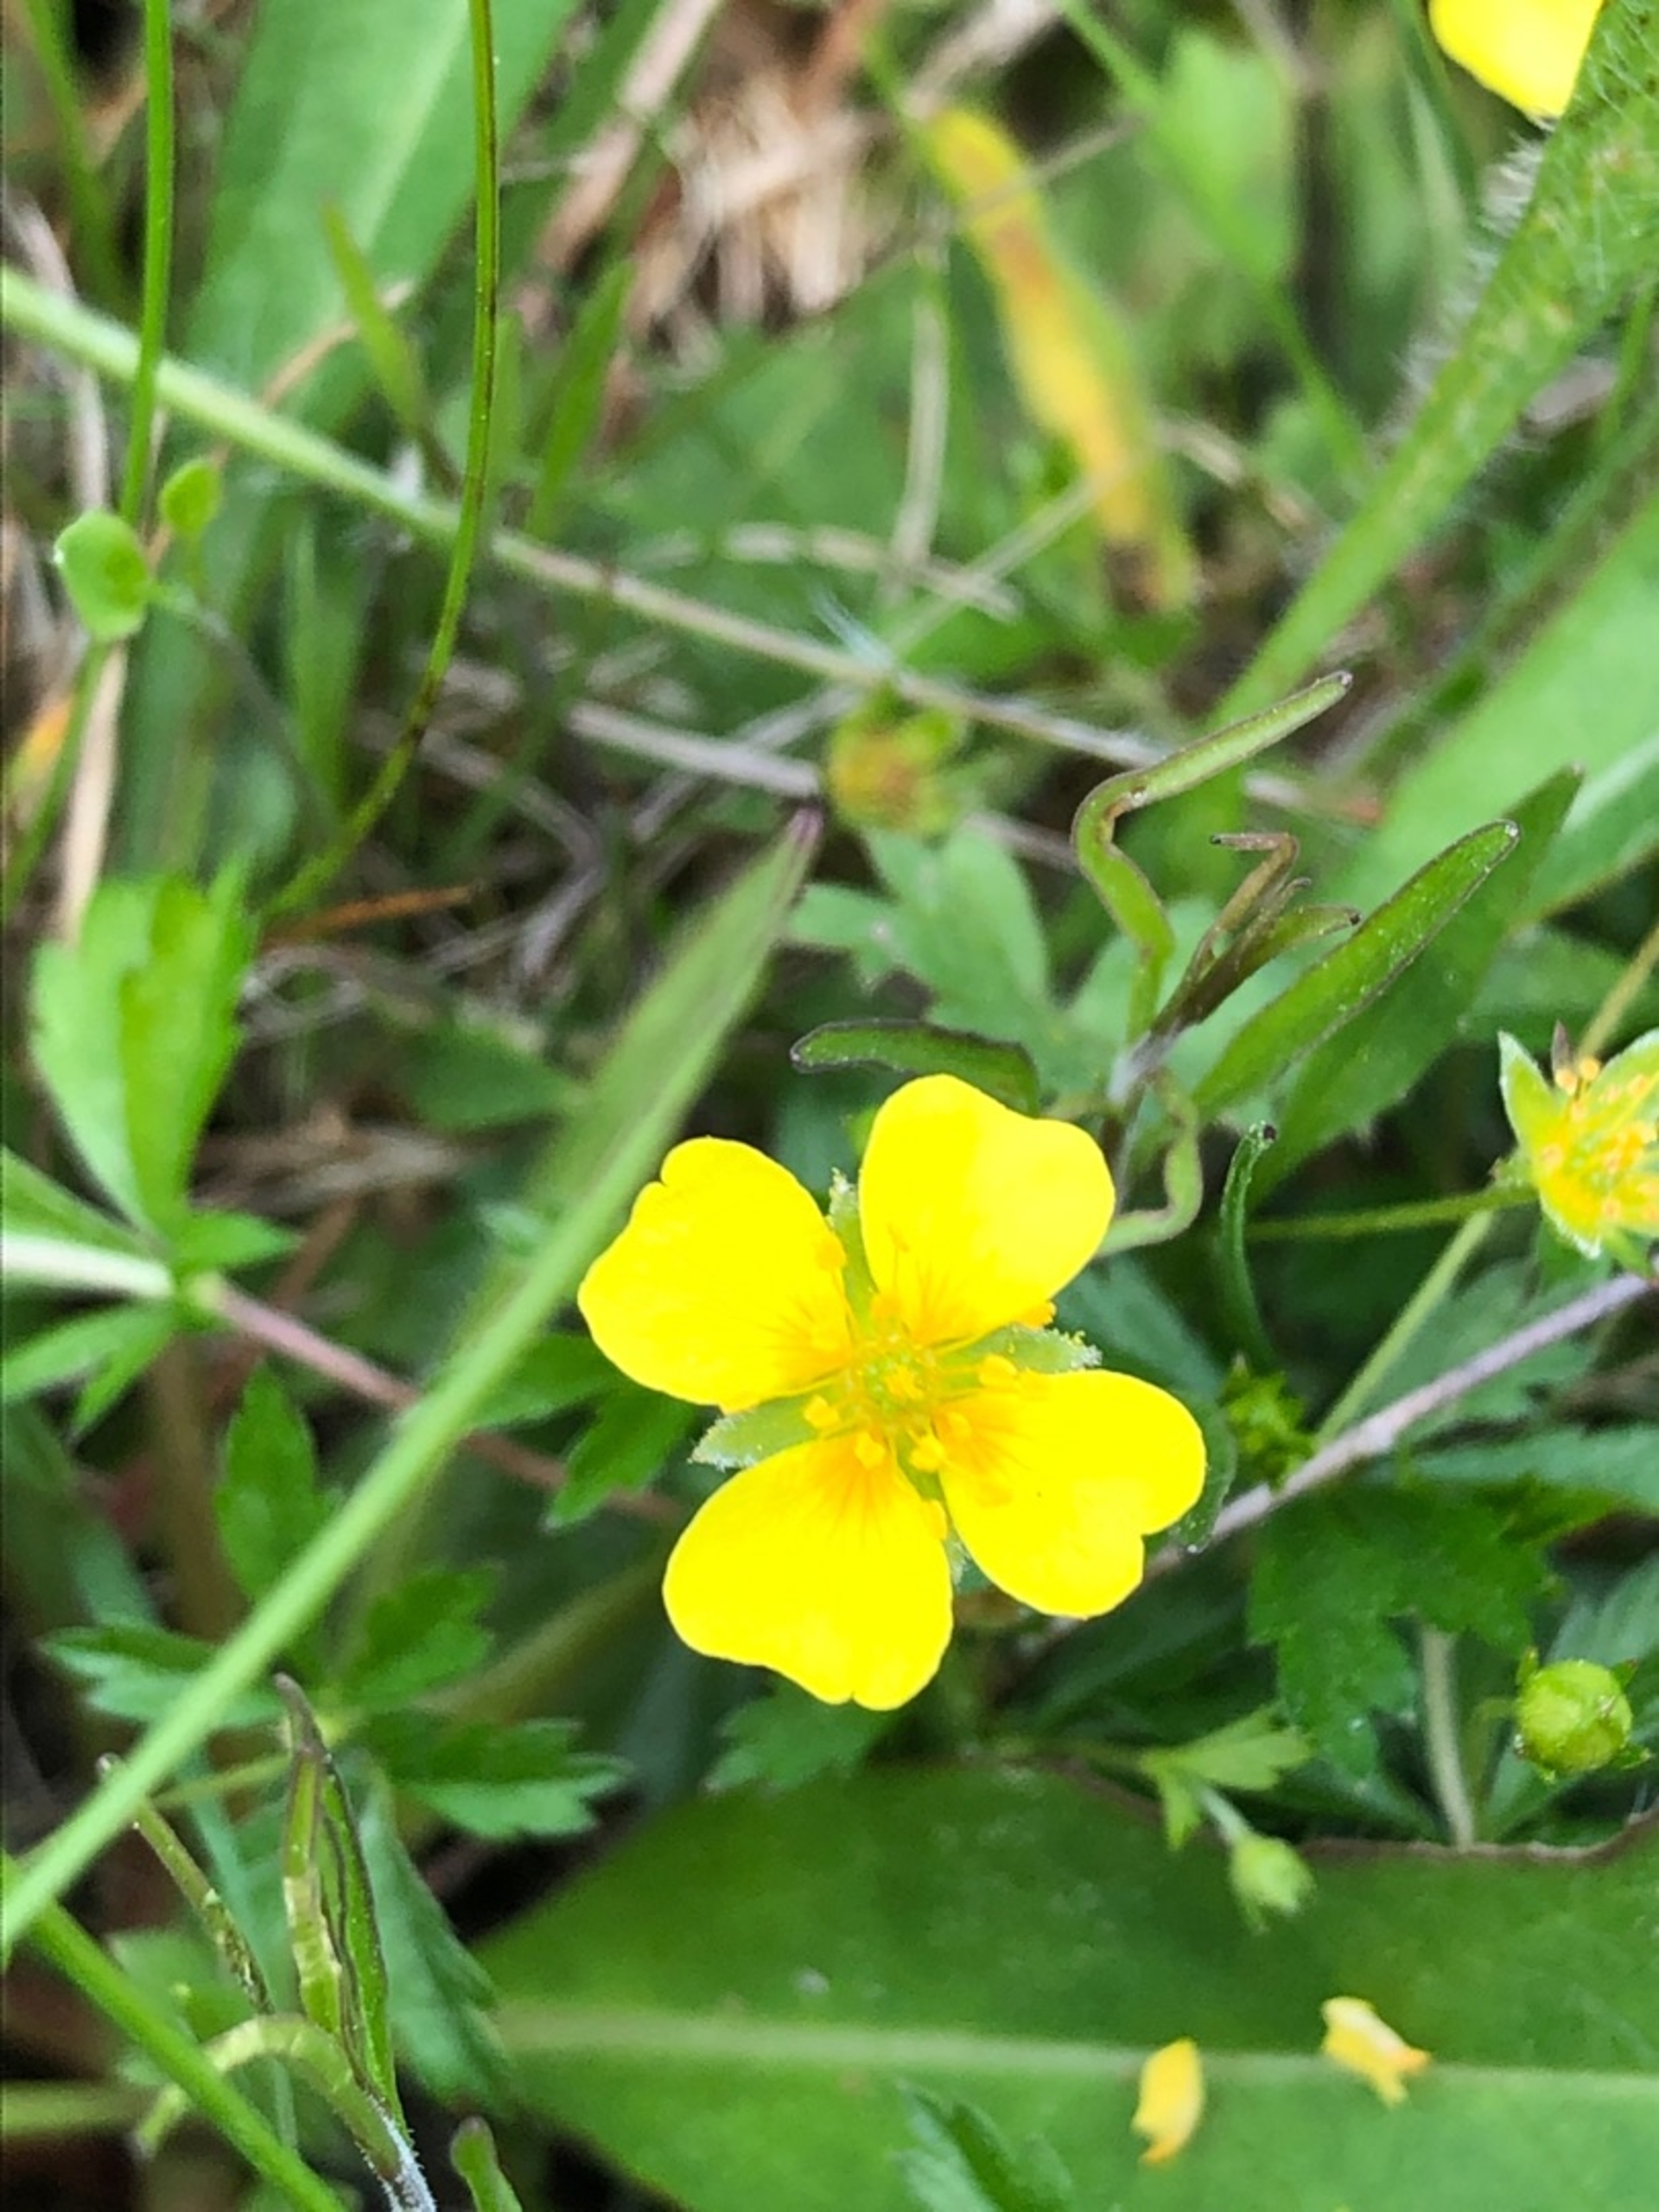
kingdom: Plantae
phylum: Tracheophyta
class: Magnoliopsida
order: Rosales
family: Rosaceae
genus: Potentilla
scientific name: Potentilla erecta
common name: Tormentil
